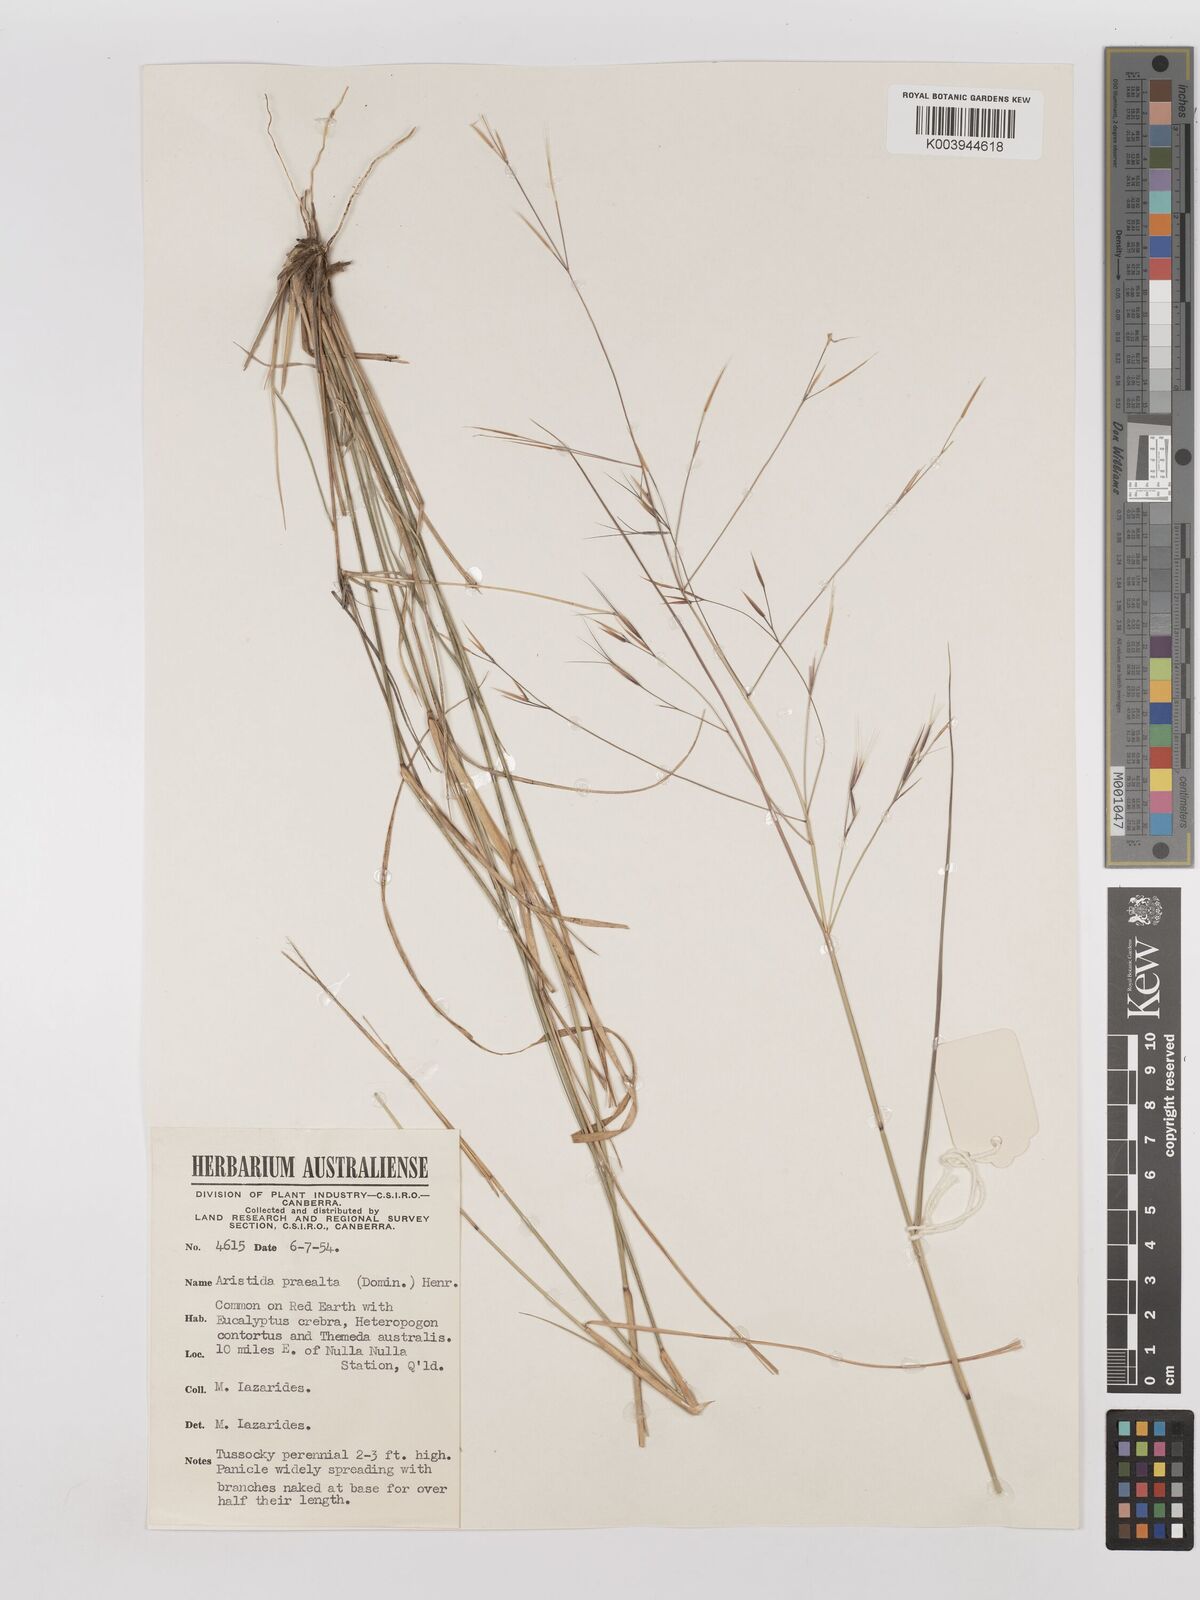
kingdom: Plantae
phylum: Tracheophyta
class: Liliopsida
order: Poales
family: Poaceae
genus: Aristida
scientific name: Aristida calycina
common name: Dark wire grass
